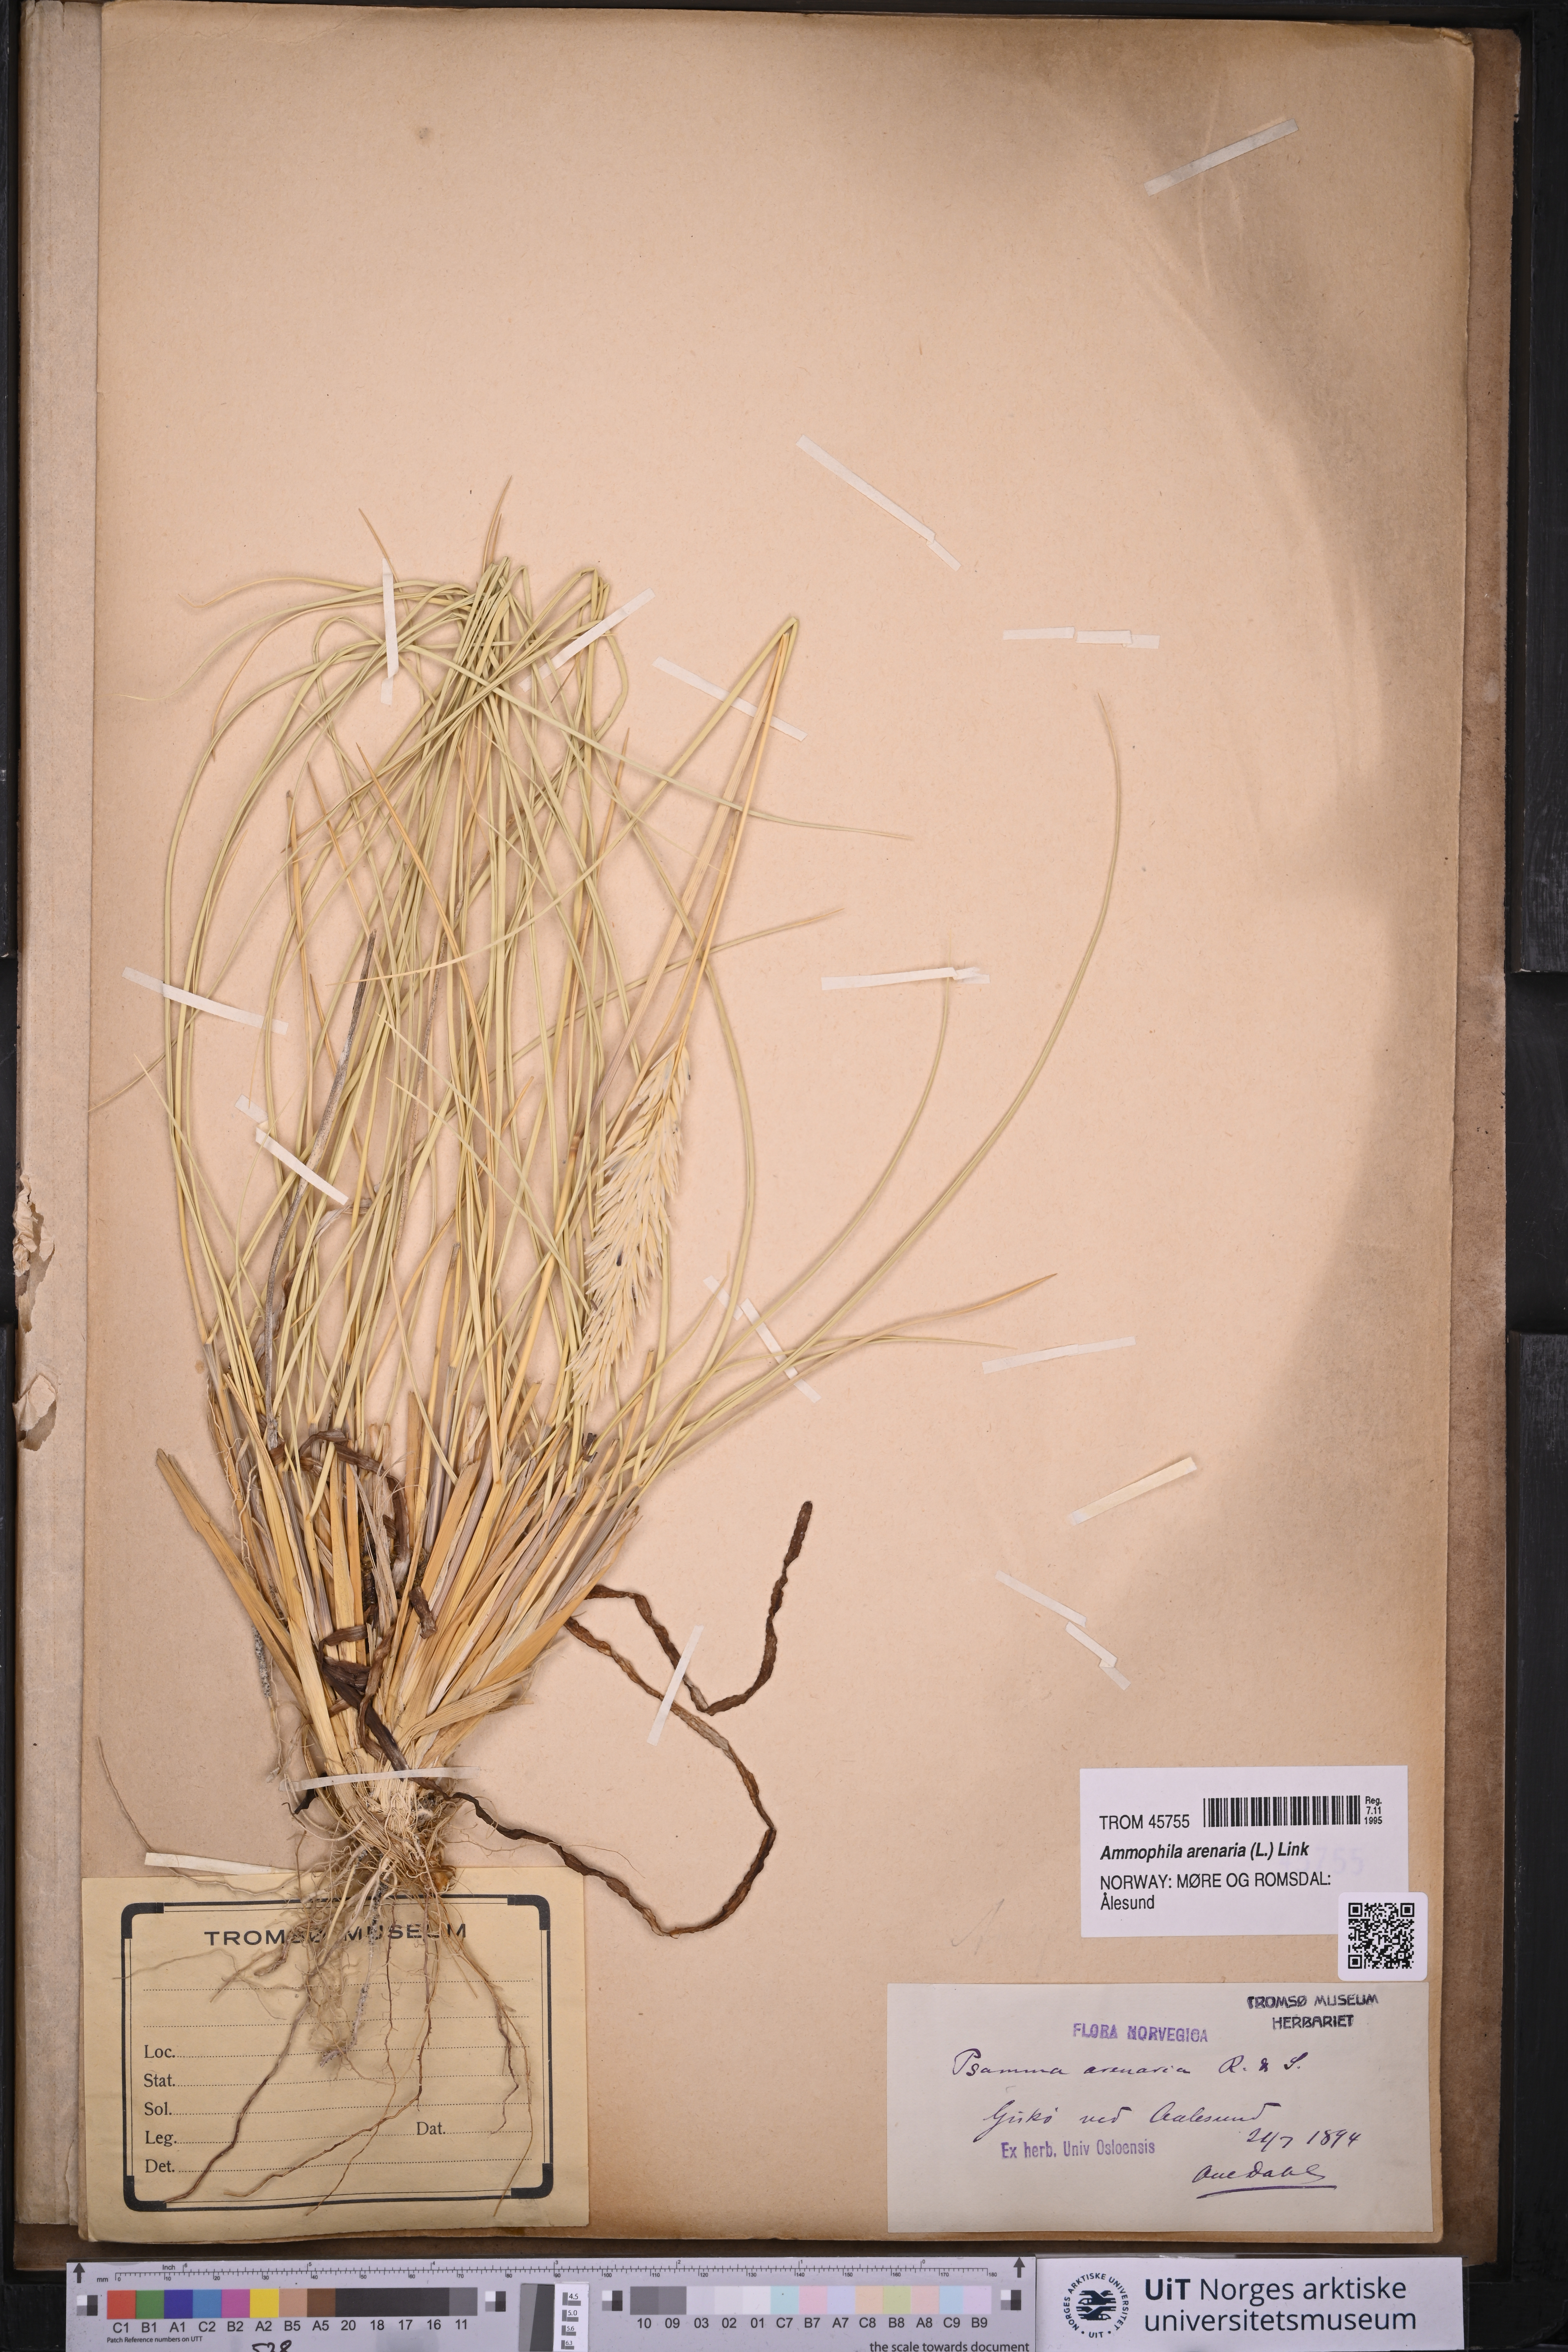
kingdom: Plantae
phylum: Tracheophyta
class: Liliopsida
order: Poales
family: Poaceae
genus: Calamagrostis
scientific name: Calamagrostis arenaria
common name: European beachgrass
